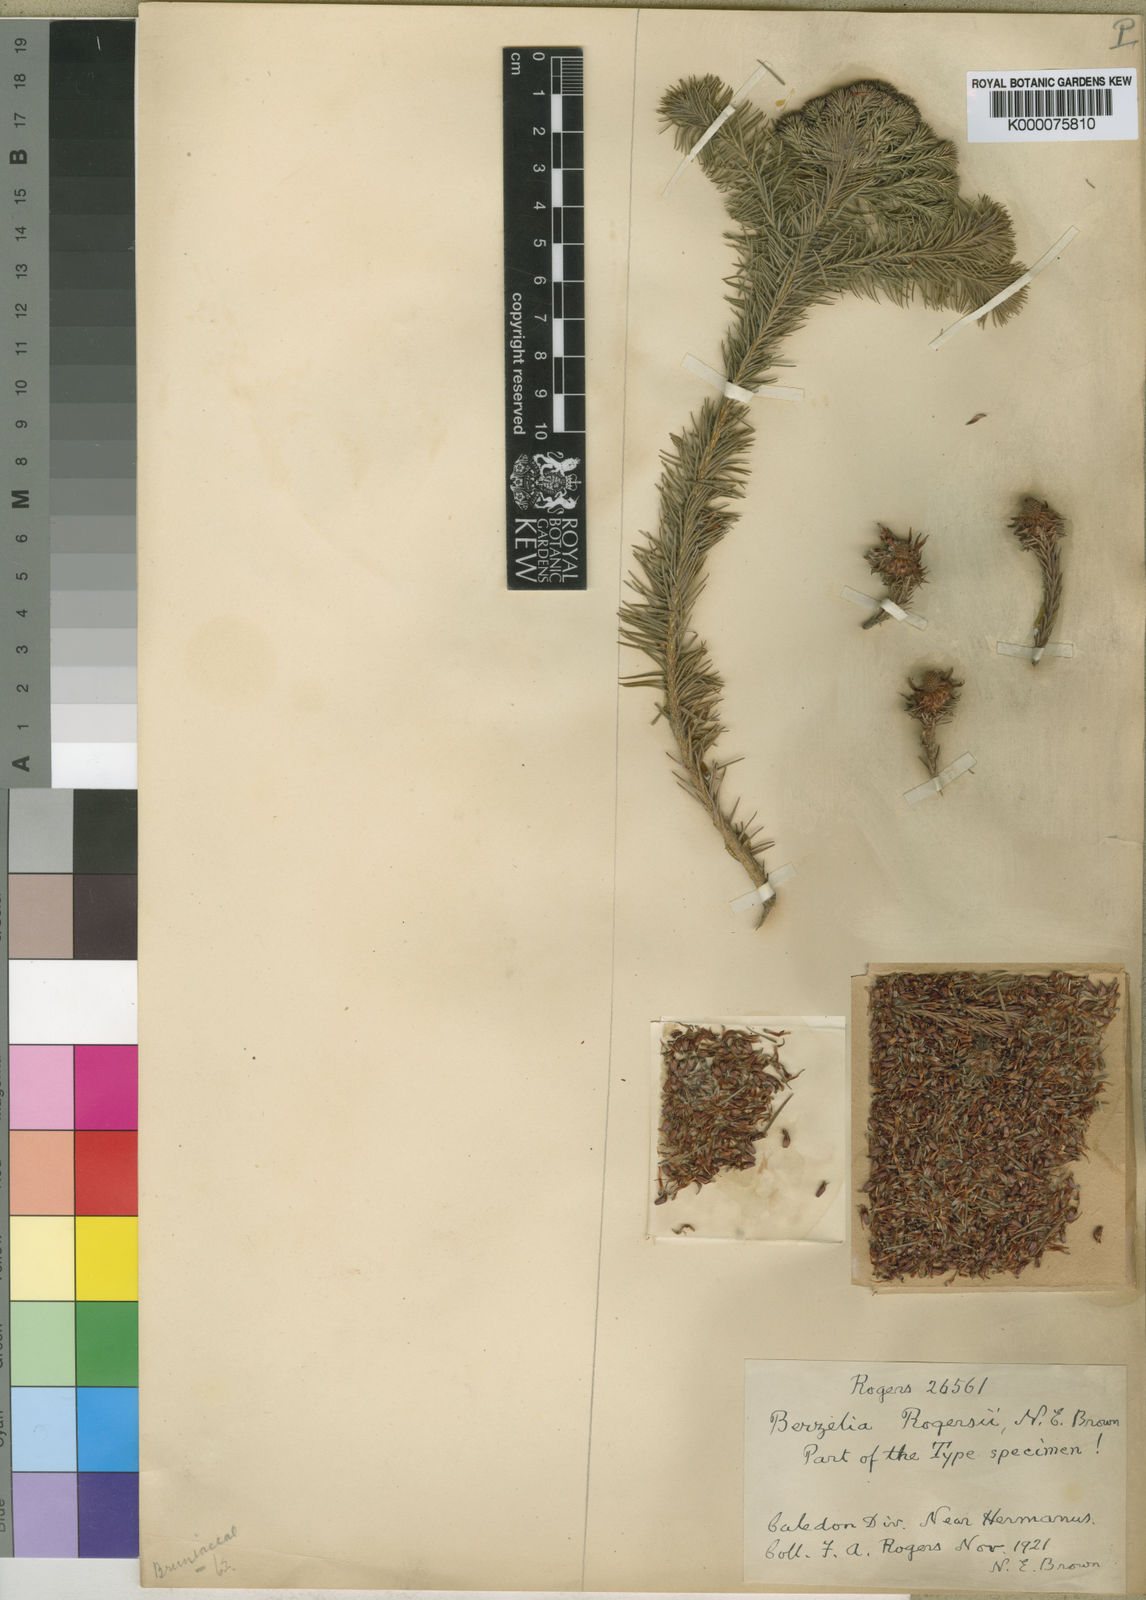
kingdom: Plantae
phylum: Tracheophyta
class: Magnoliopsida
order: Bruniales
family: Bruniaceae
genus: Brunia
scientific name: Brunia
